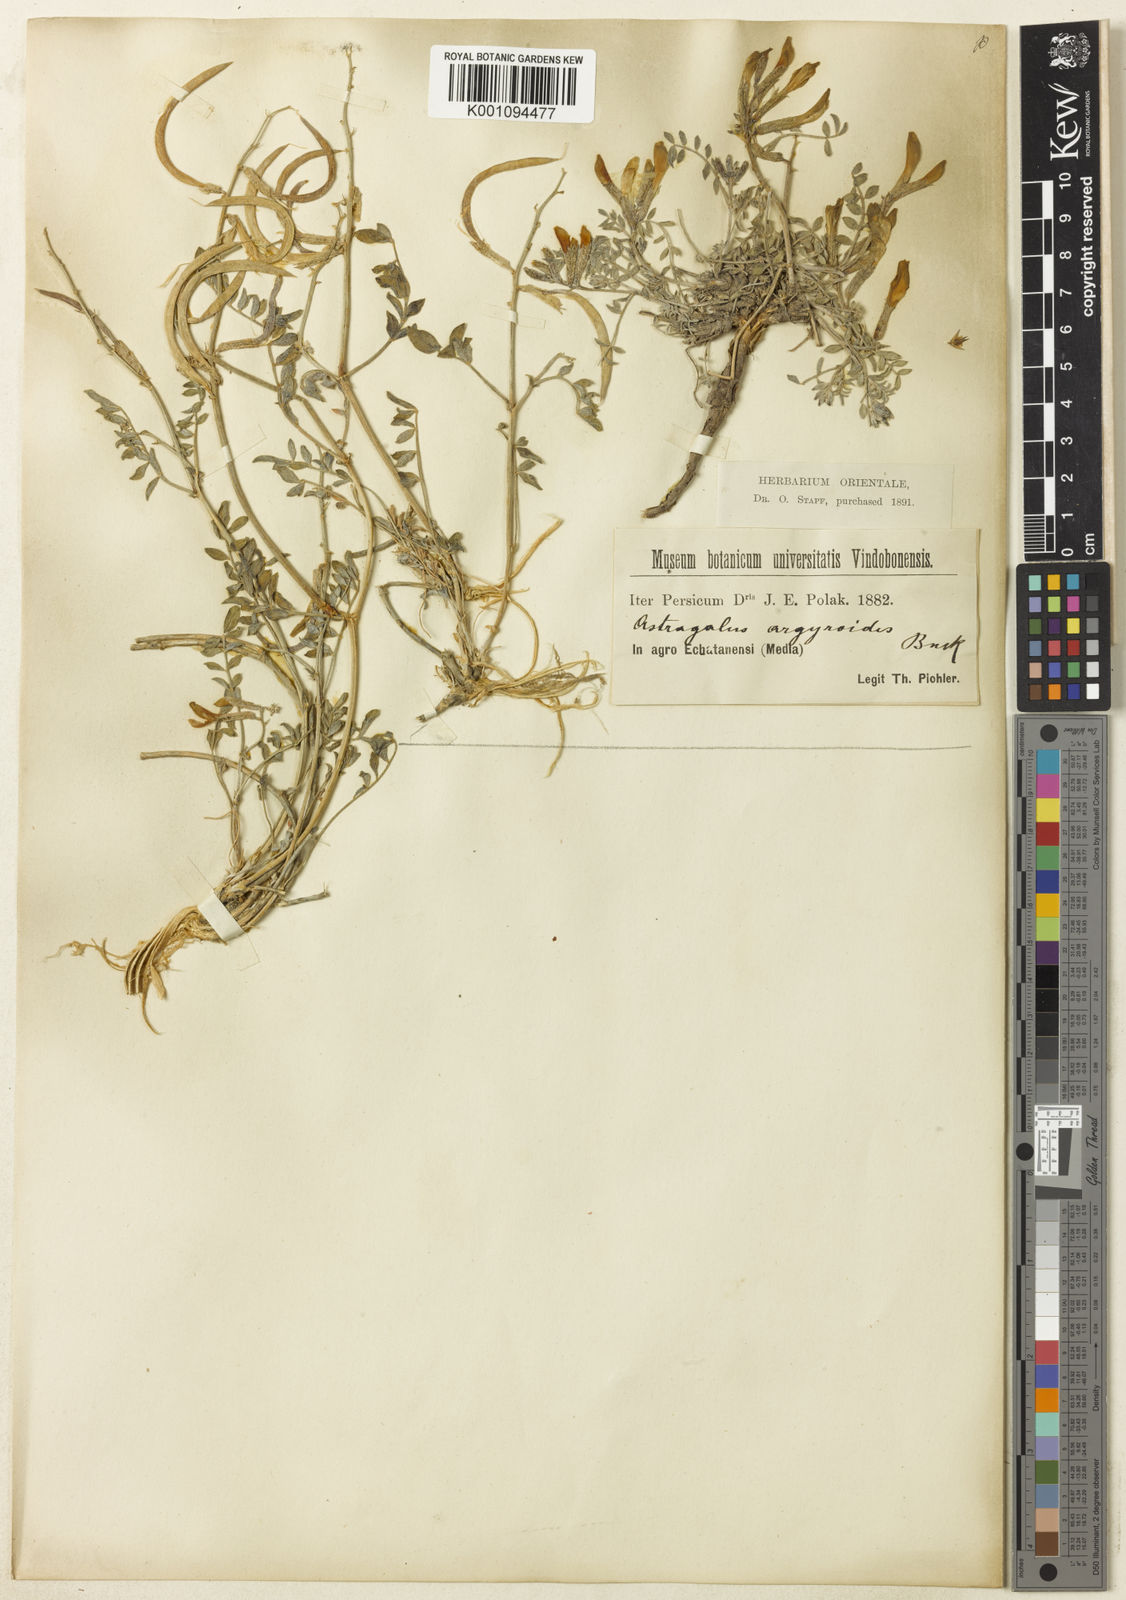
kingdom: Plantae
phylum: Tracheophyta
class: Magnoliopsida
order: Fabales
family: Fabaceae
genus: Astragalus
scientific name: Astragalus
